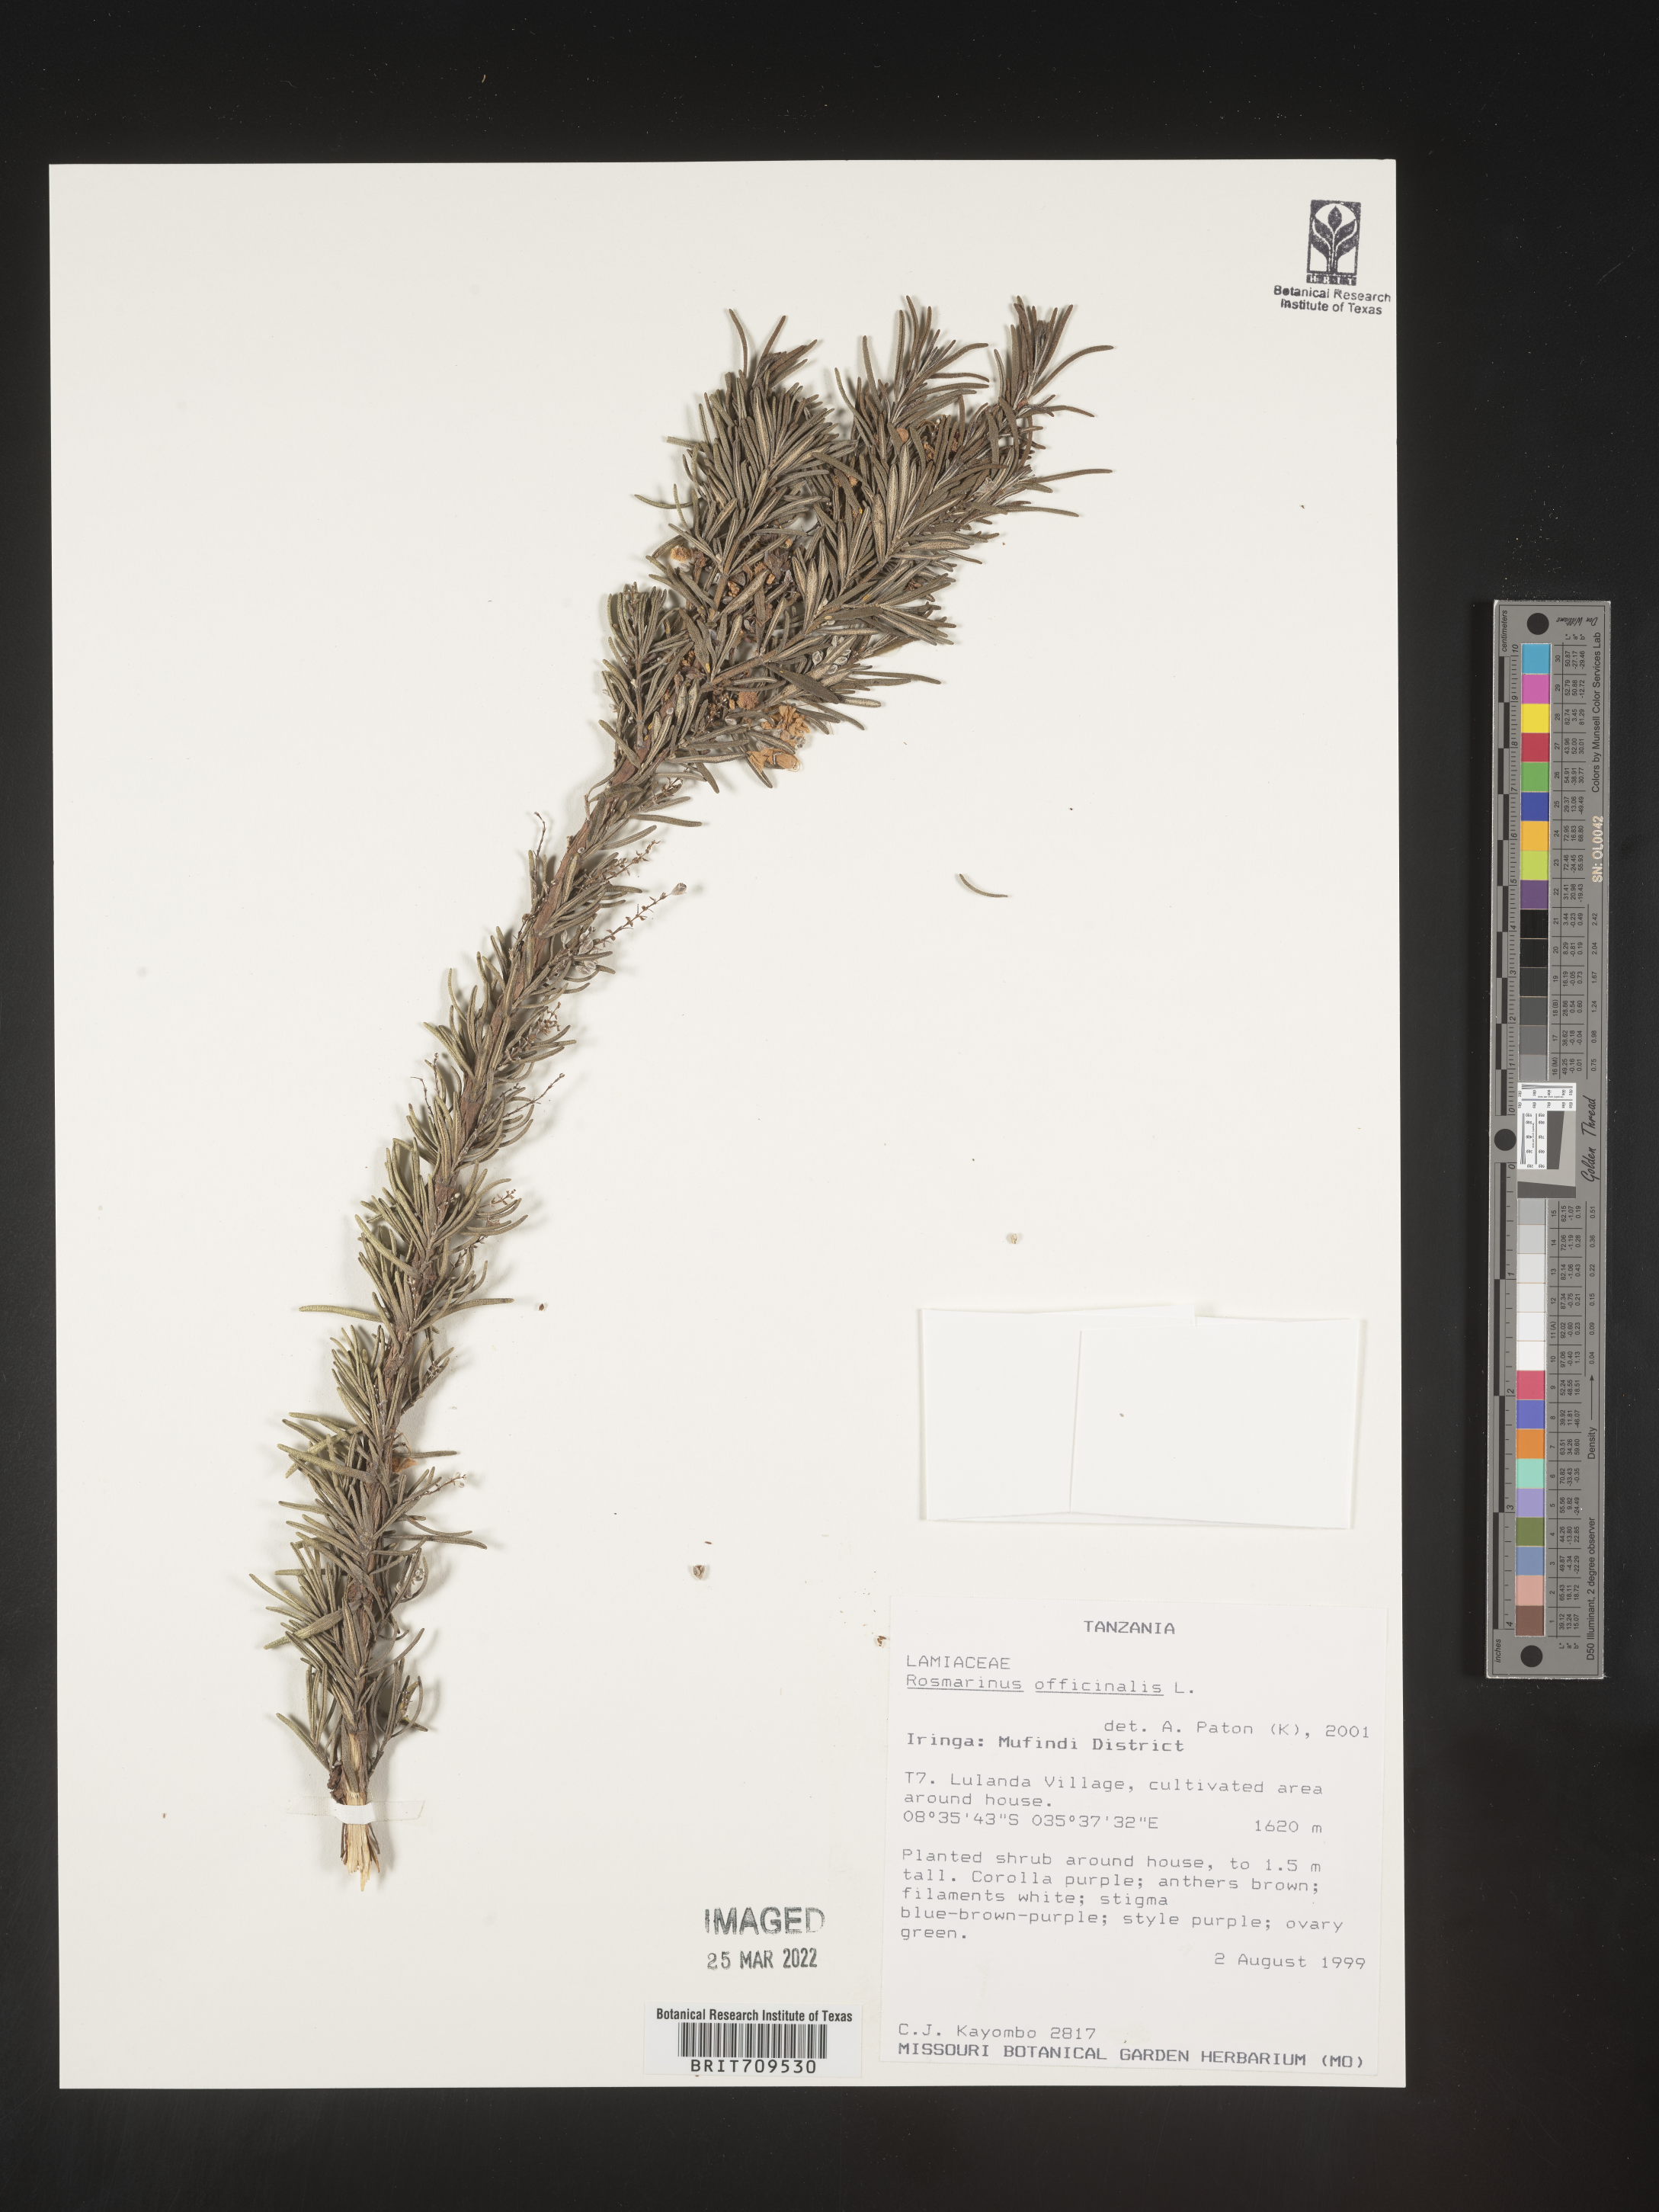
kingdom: Plantae
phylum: Tracheophyta
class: Magnoliopsida
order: Lamiales
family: Lamiaceae
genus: Salvia
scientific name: Salvia
